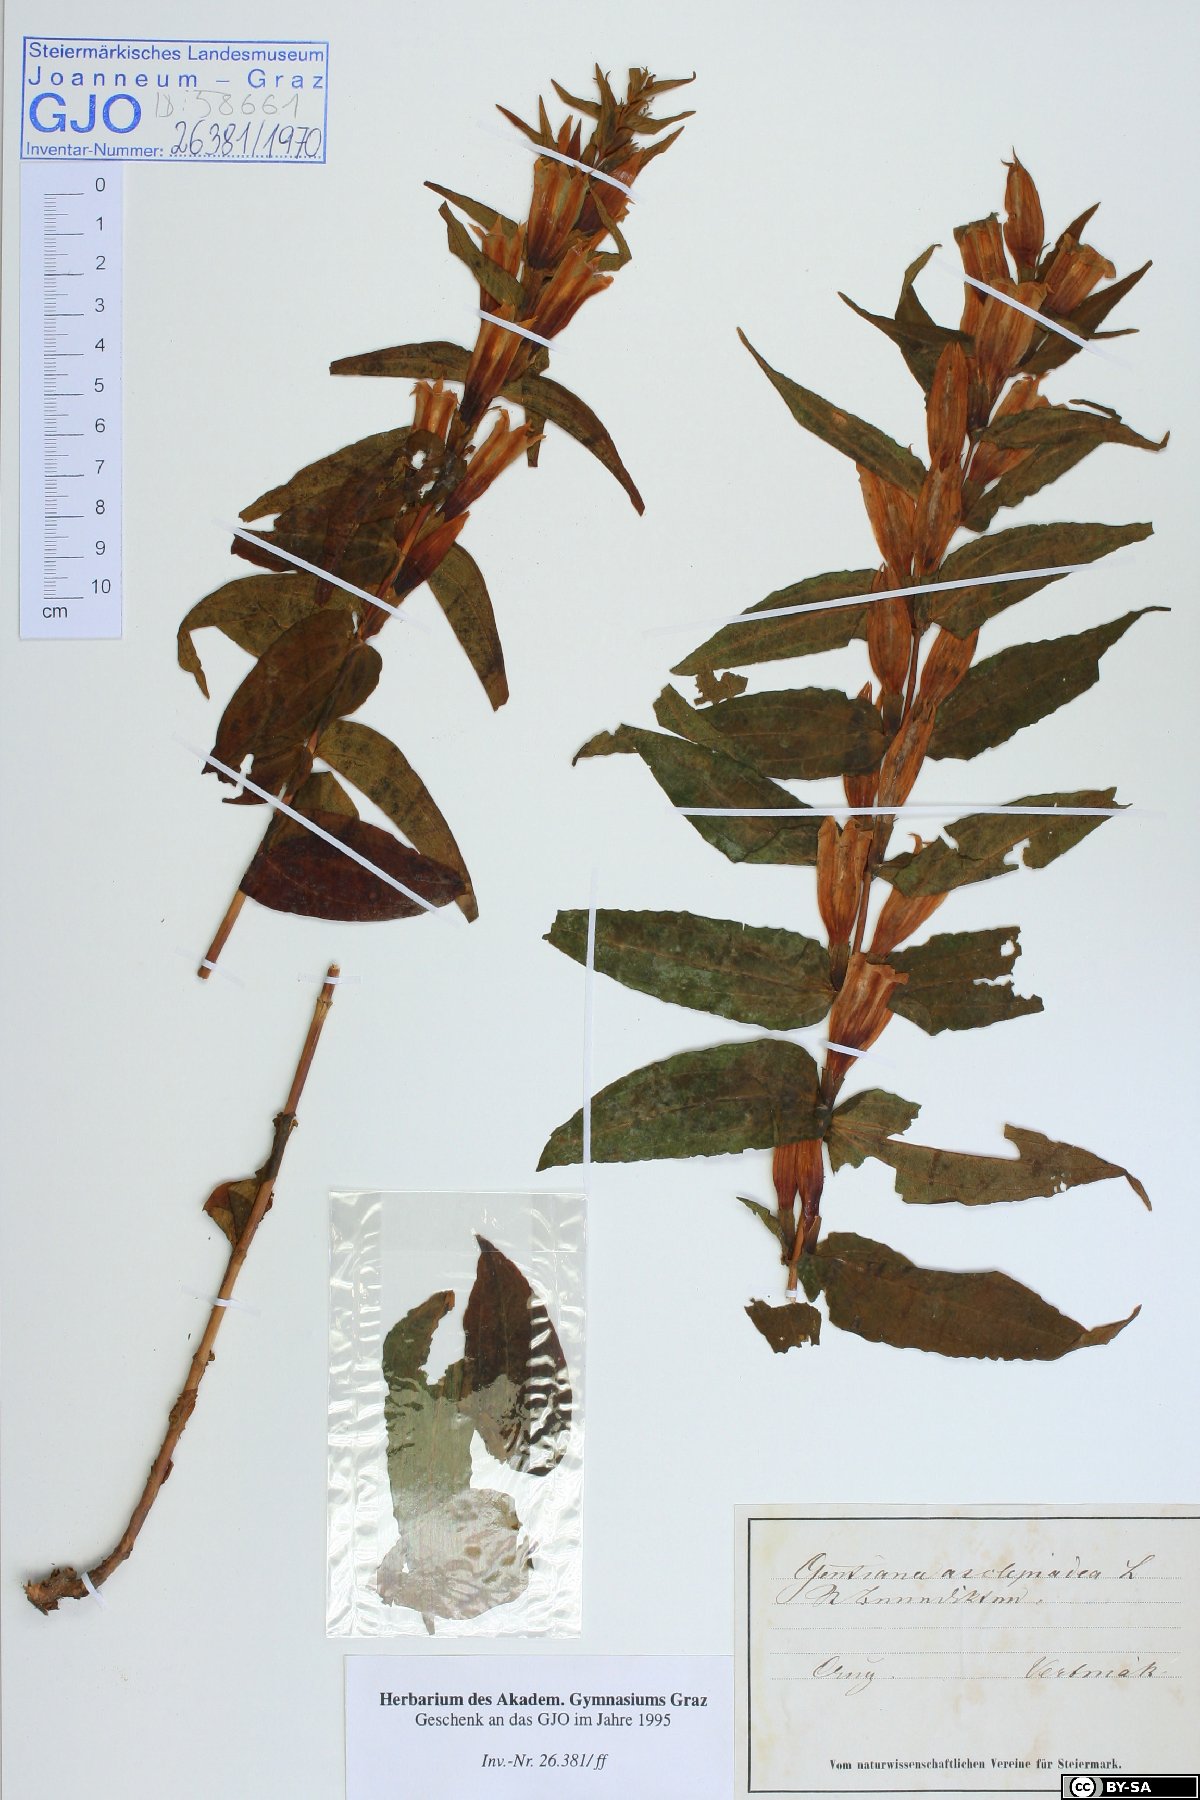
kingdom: Plantae
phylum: Tracheophyta
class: Magnoliopsida
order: Gentianales
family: Gentianaceae
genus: Gentiana
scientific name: Gentiana asclepiadea
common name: Willow gentian
